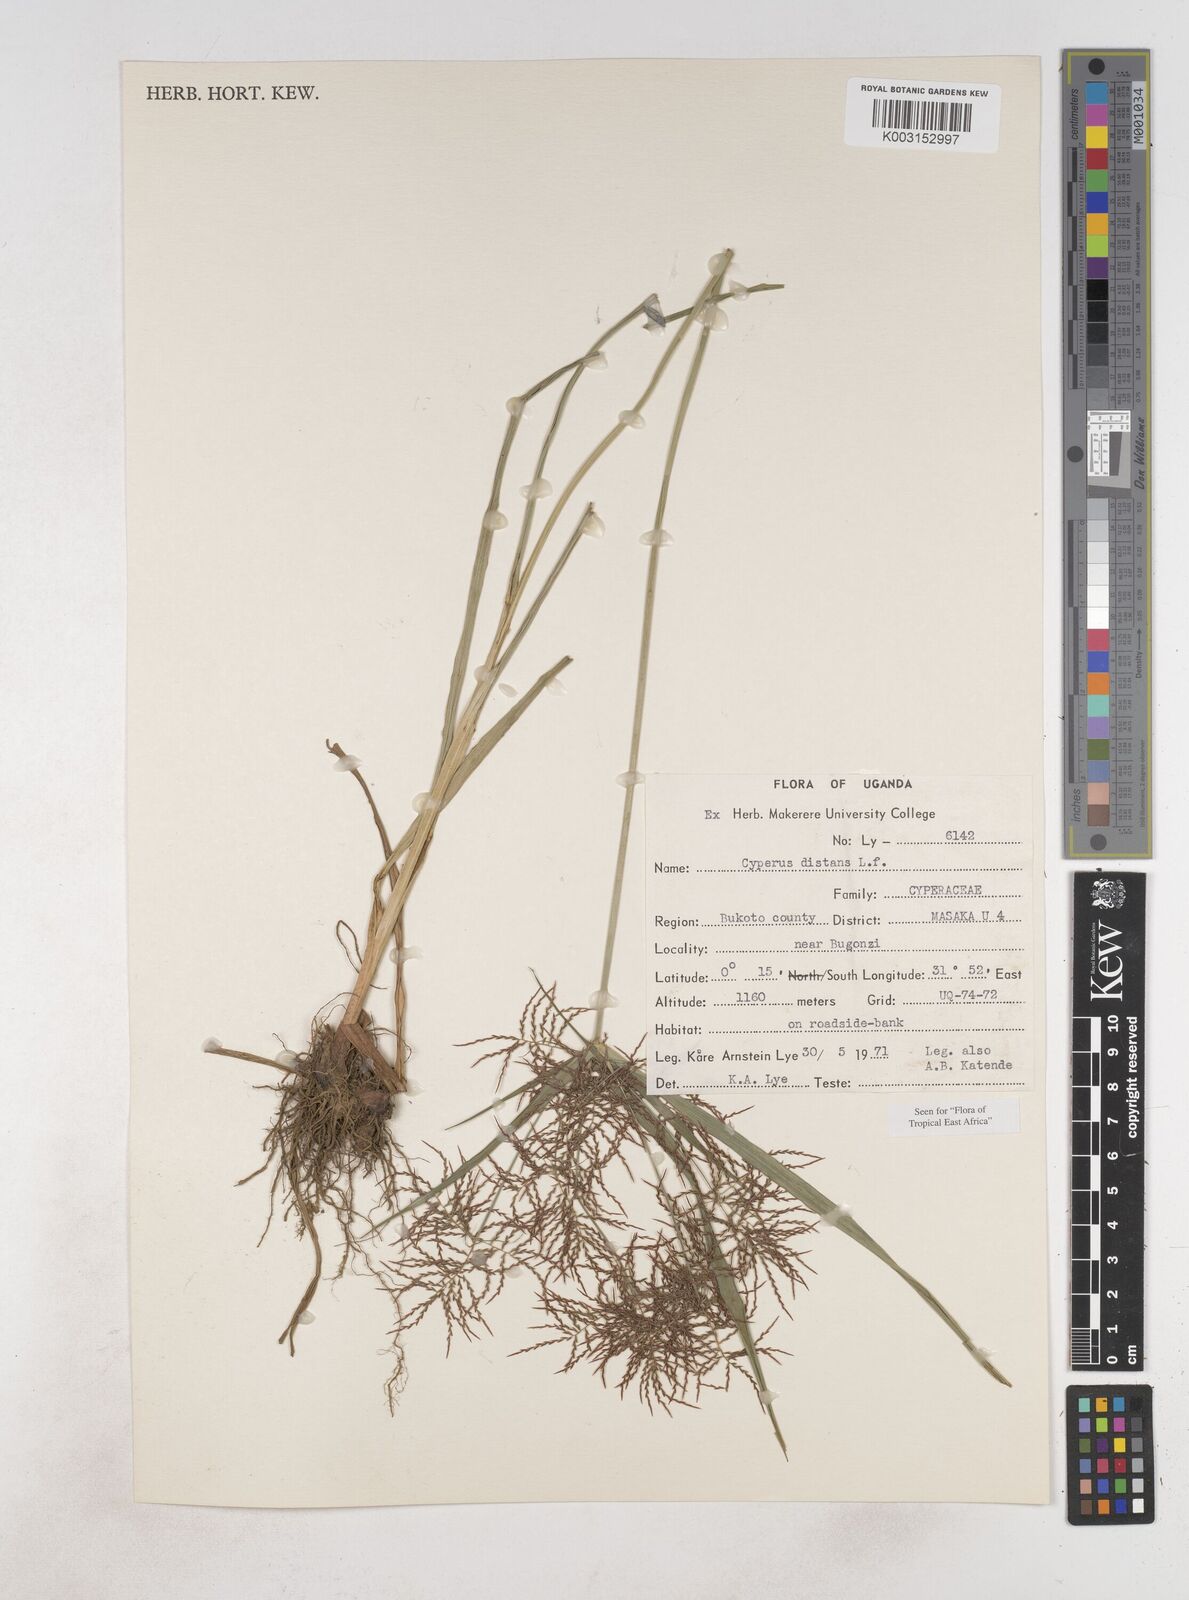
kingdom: Plantae
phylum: Tracheophyta
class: Liliopsida
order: Poales
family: Cyperaceae
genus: Cyperus
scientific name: Cyperus distans
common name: Slender cyperus
